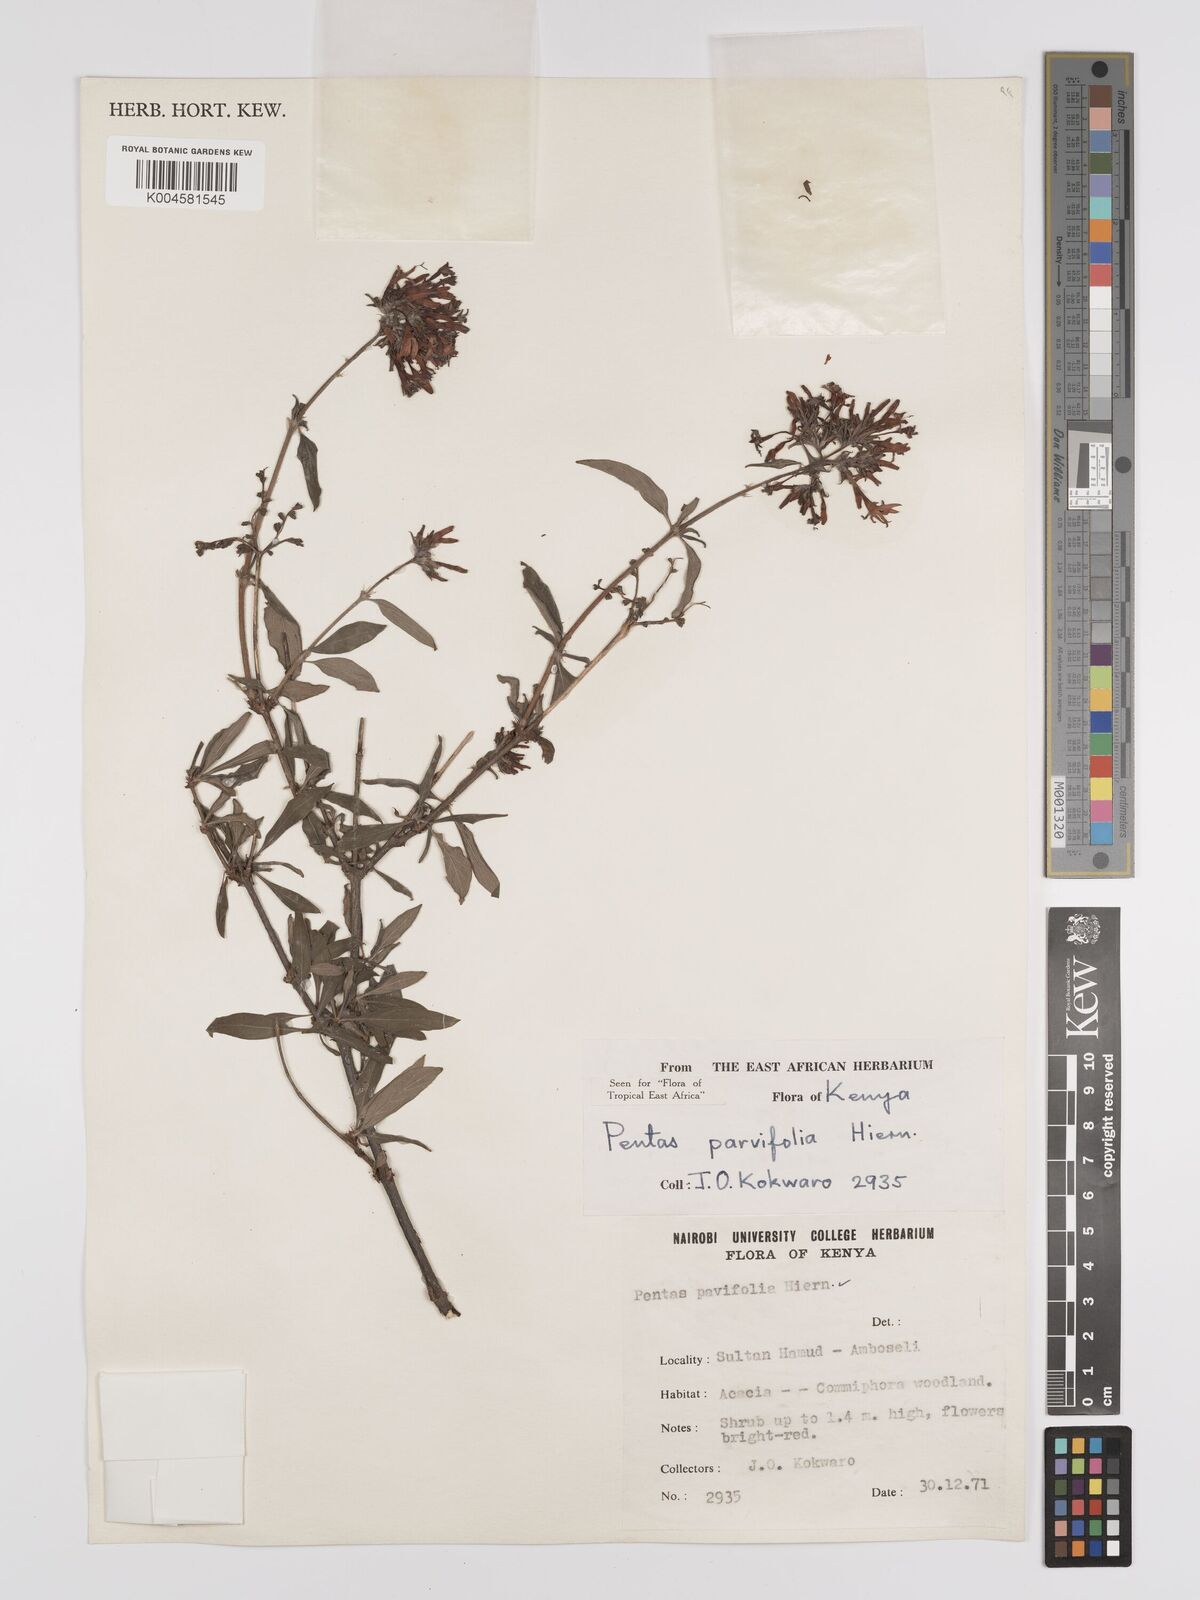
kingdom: Plantae
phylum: Tracheophyta
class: Magnoliopsida
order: Gentianales
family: Rubiaceae
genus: Rhodopentas
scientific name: Rhodopentas parvifolia
